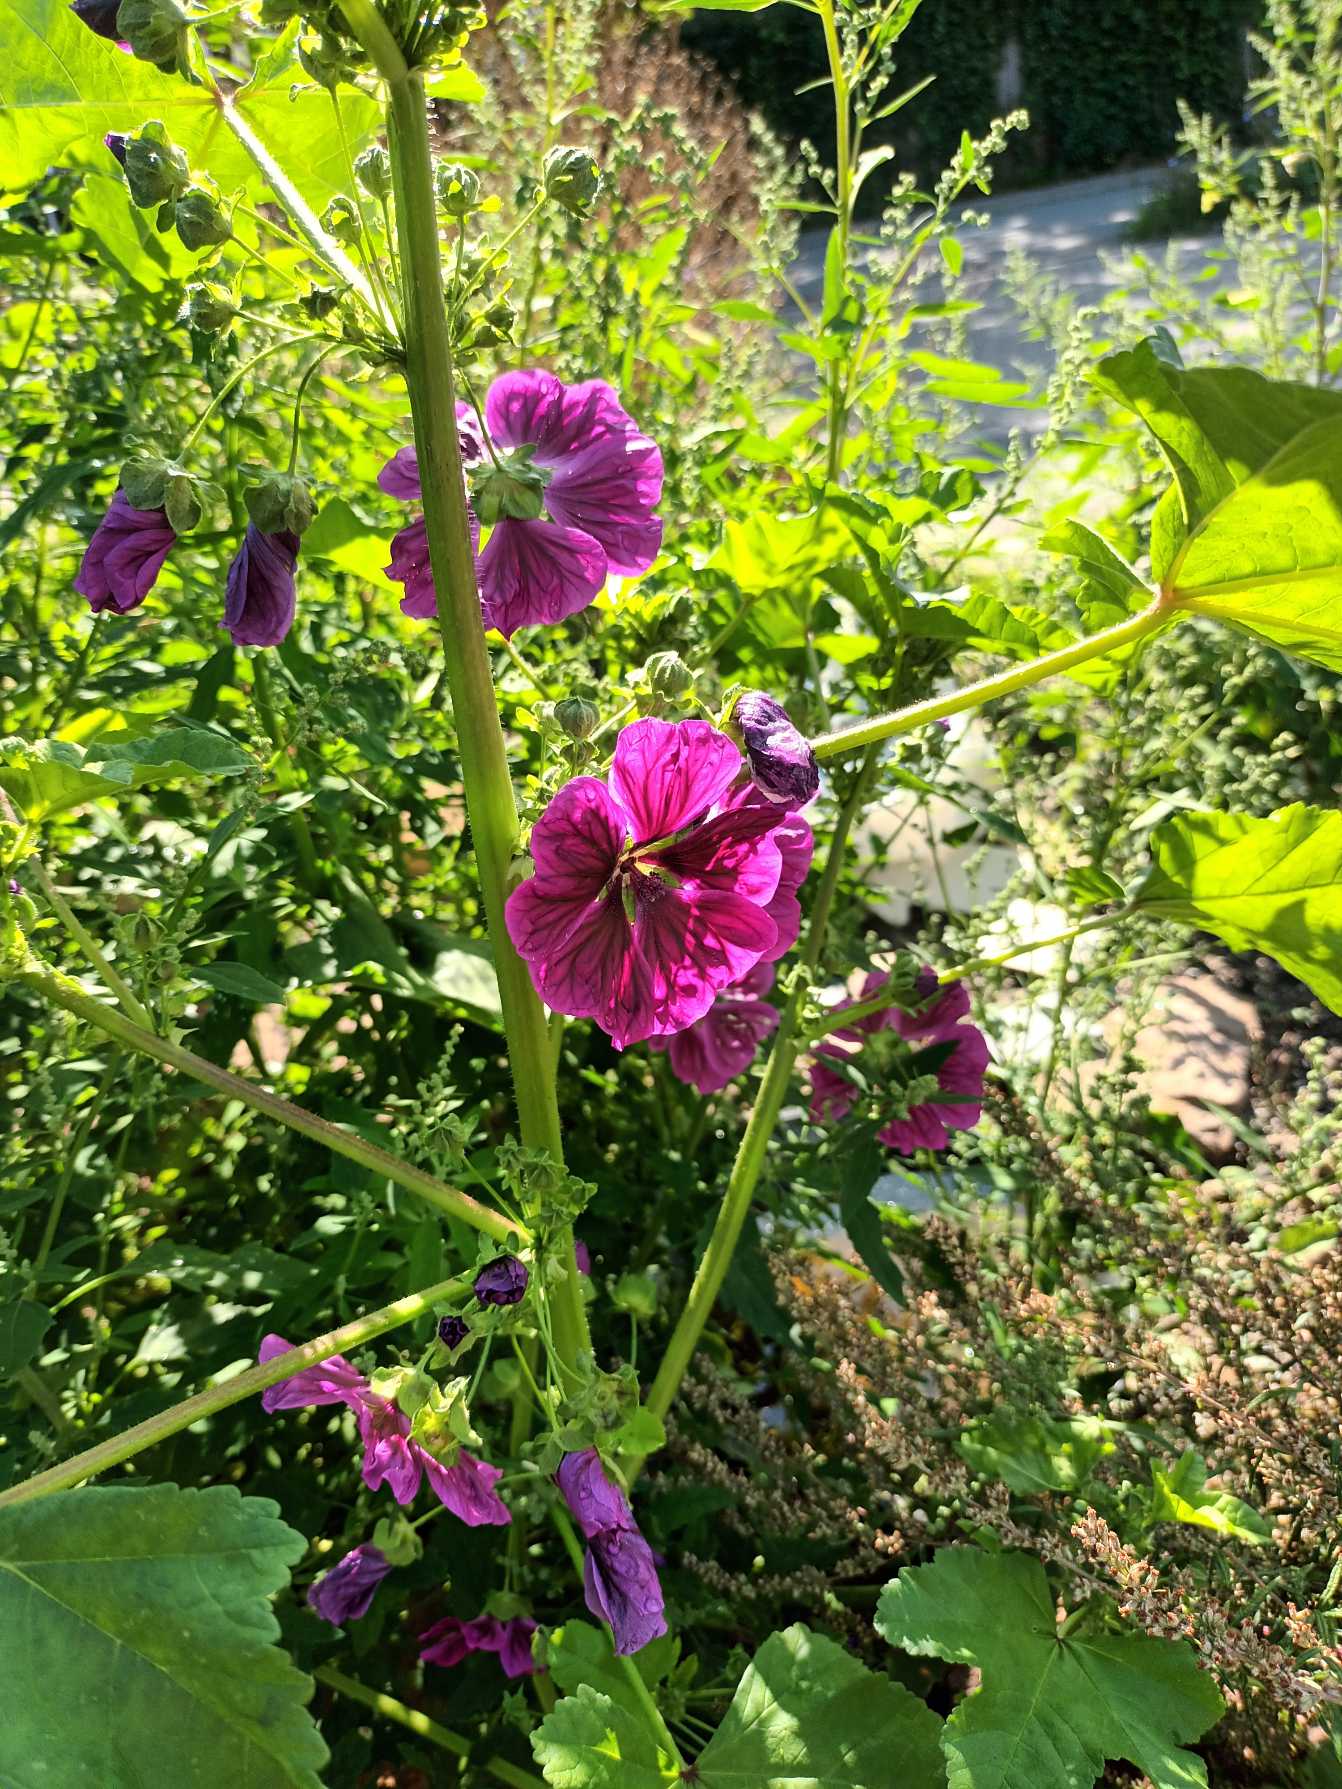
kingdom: Plantae
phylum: Tracheophyta
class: Magnoliopsida
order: Malvales
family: Malvaceae
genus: Malva
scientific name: Malva sylvestris
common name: Stor katost
